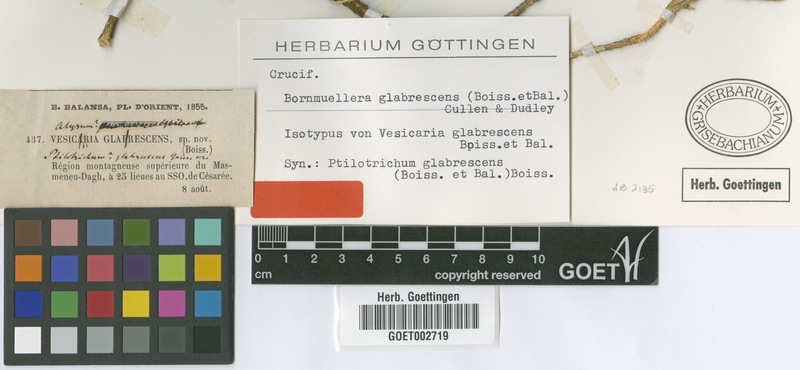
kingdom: Plantae
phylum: Tracheophyta
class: Magnoliopsida
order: Brassicales
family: Brassicaceae
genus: Bornmuellera
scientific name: Bornmuellera glabrescens
